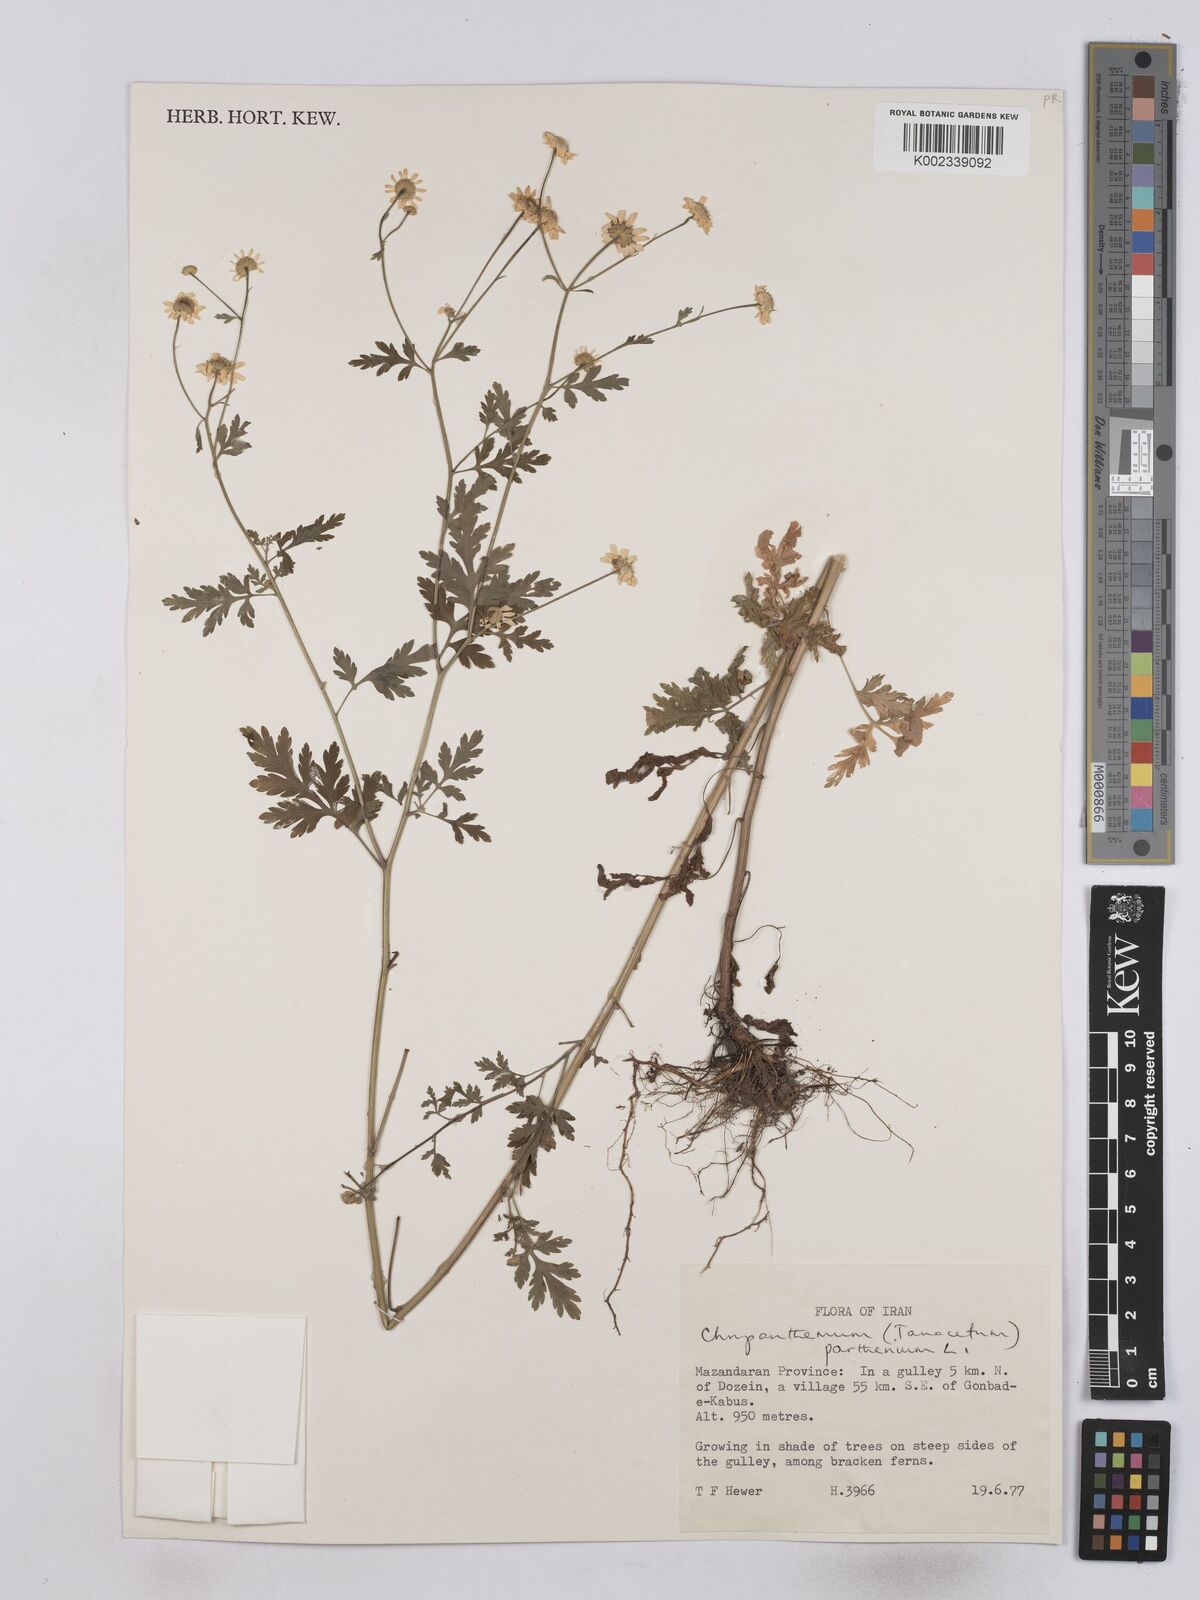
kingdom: Plantae
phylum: Tracheophyta
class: Magnoliopsida
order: Asterales
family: Asteraceae
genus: Tanacetum
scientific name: Tanacetum parthenium
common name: Feverfew
